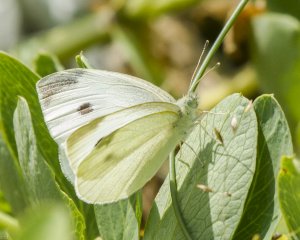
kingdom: Animalia
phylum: Arthropoda
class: Insecta
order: Lepidoptera
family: Pieridae
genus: Pieris
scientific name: Pieris rapae
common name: Cabbage White
